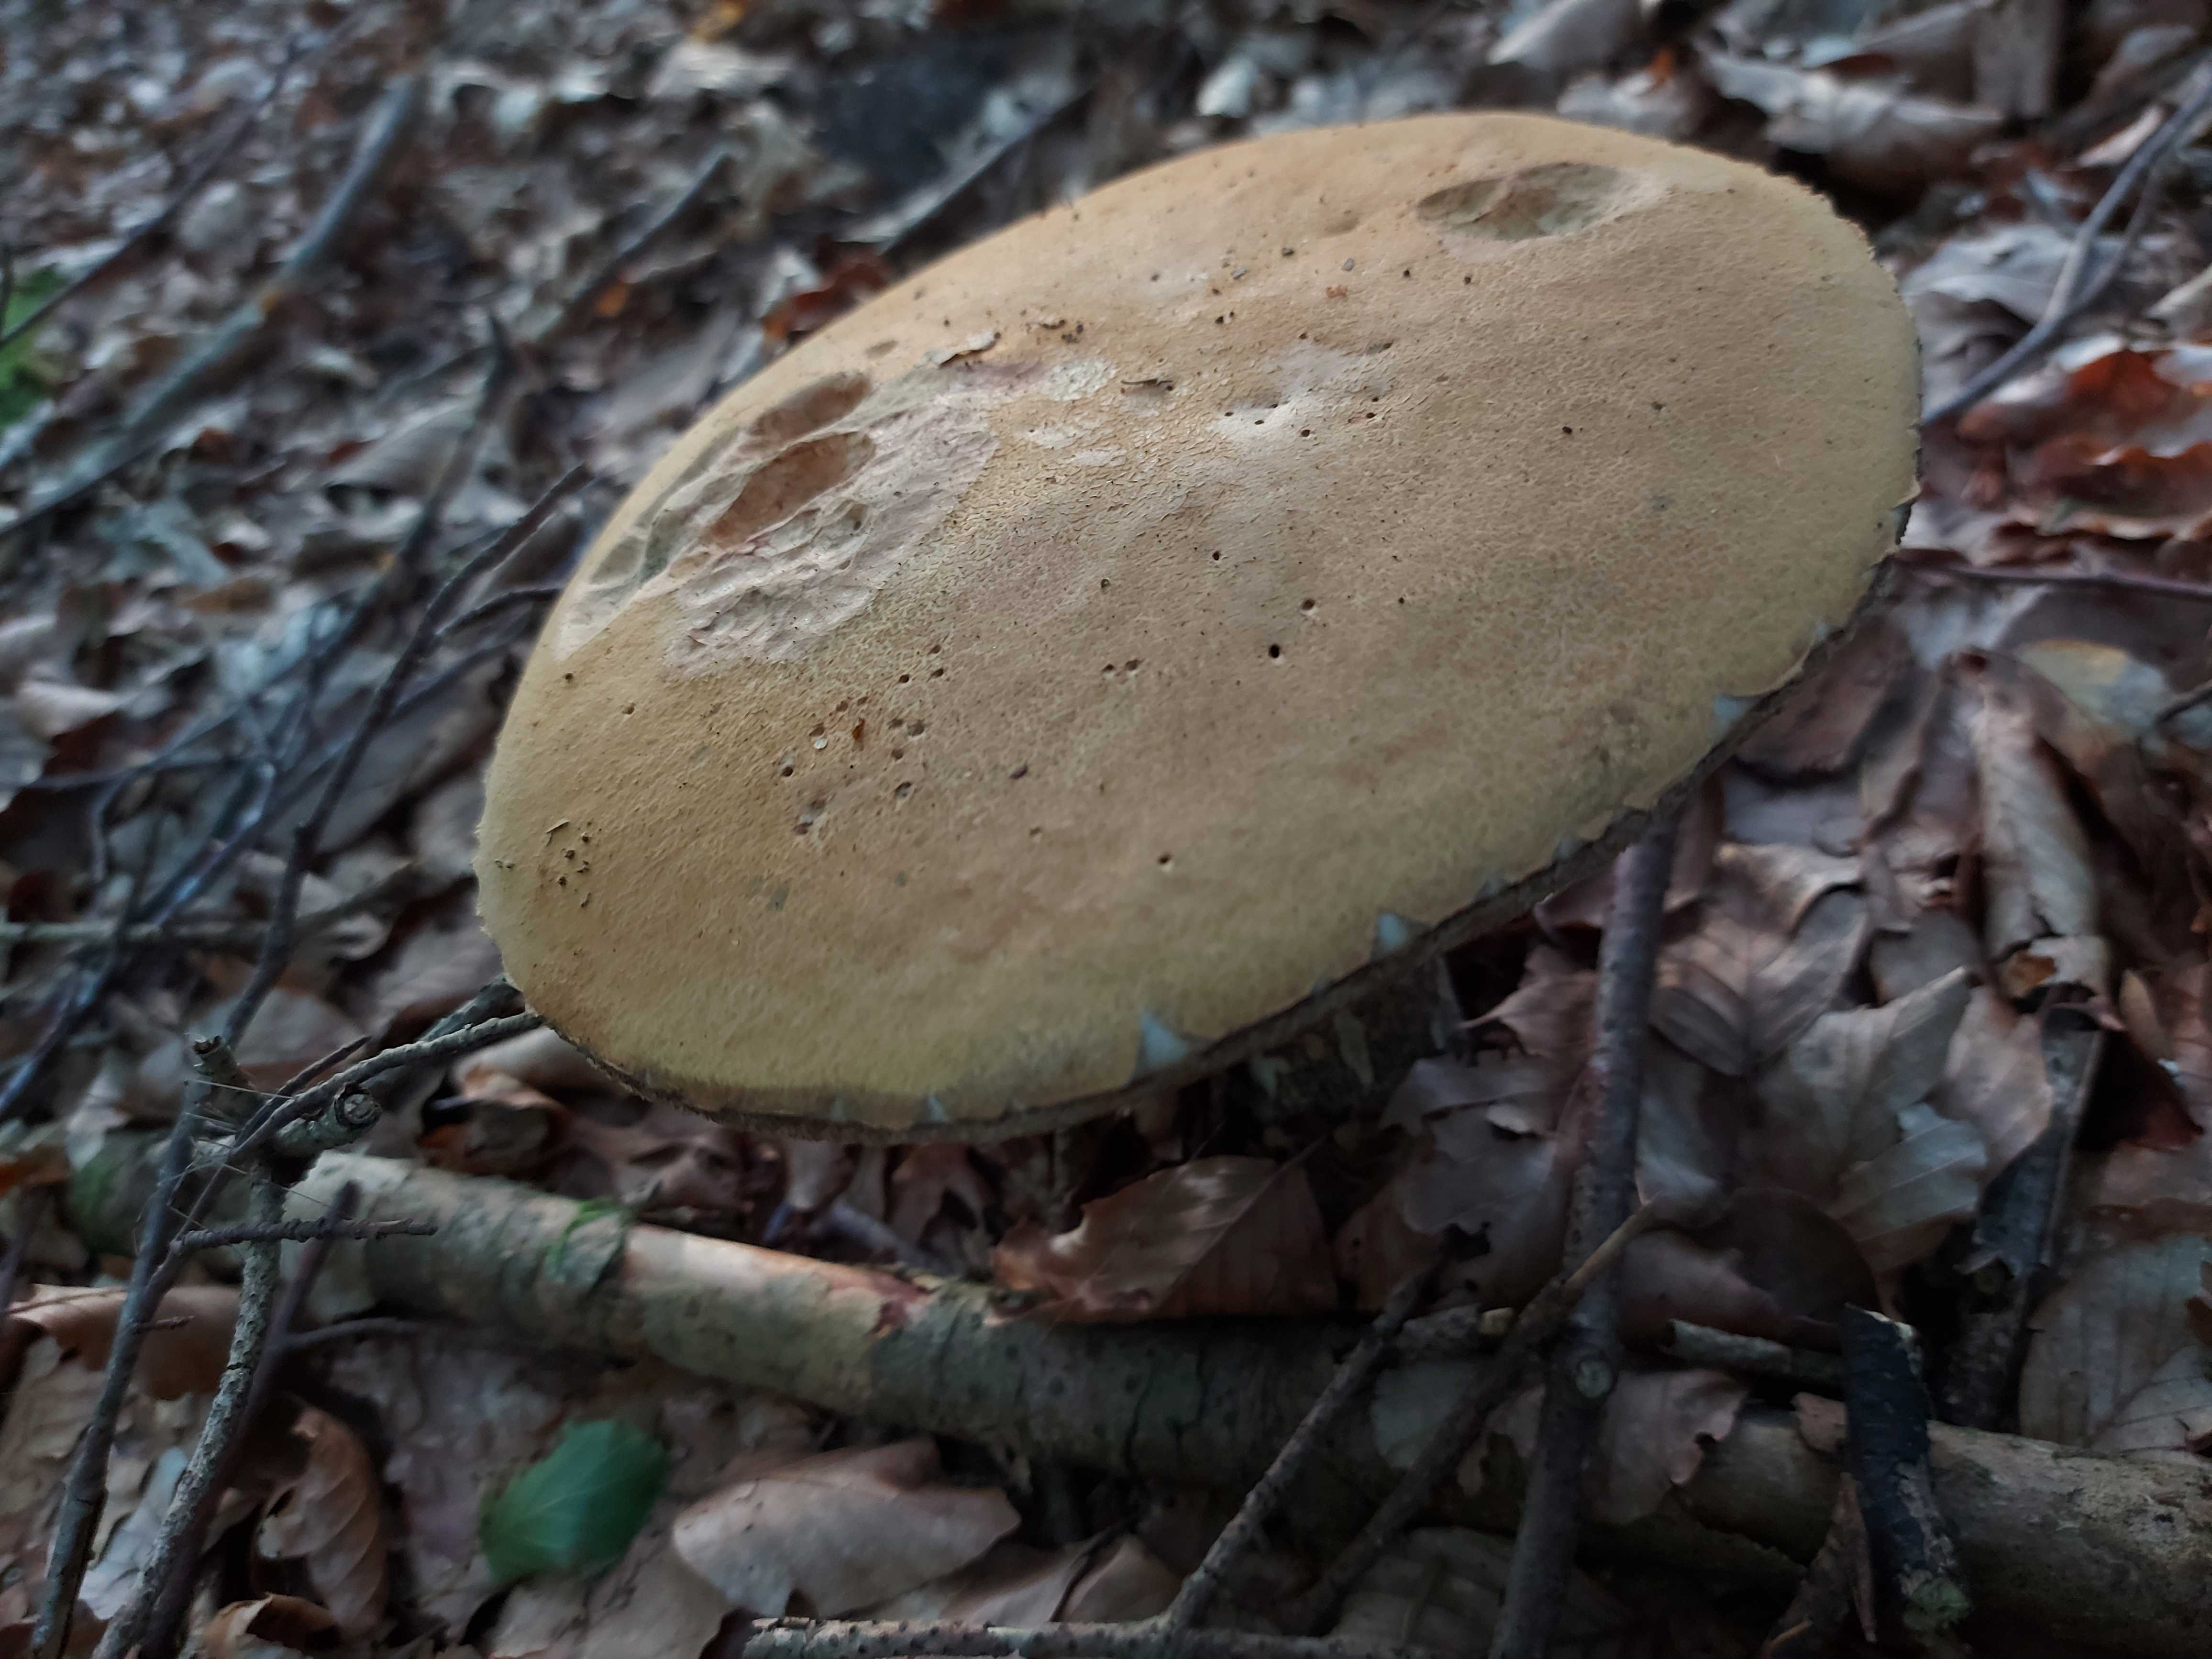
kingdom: Fungi
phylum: Basidiomycota
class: Agaricomycetes
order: Boletales
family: Boletaceae
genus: Leccinum
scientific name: Leccinum versipelle
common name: orange skælrørhat
